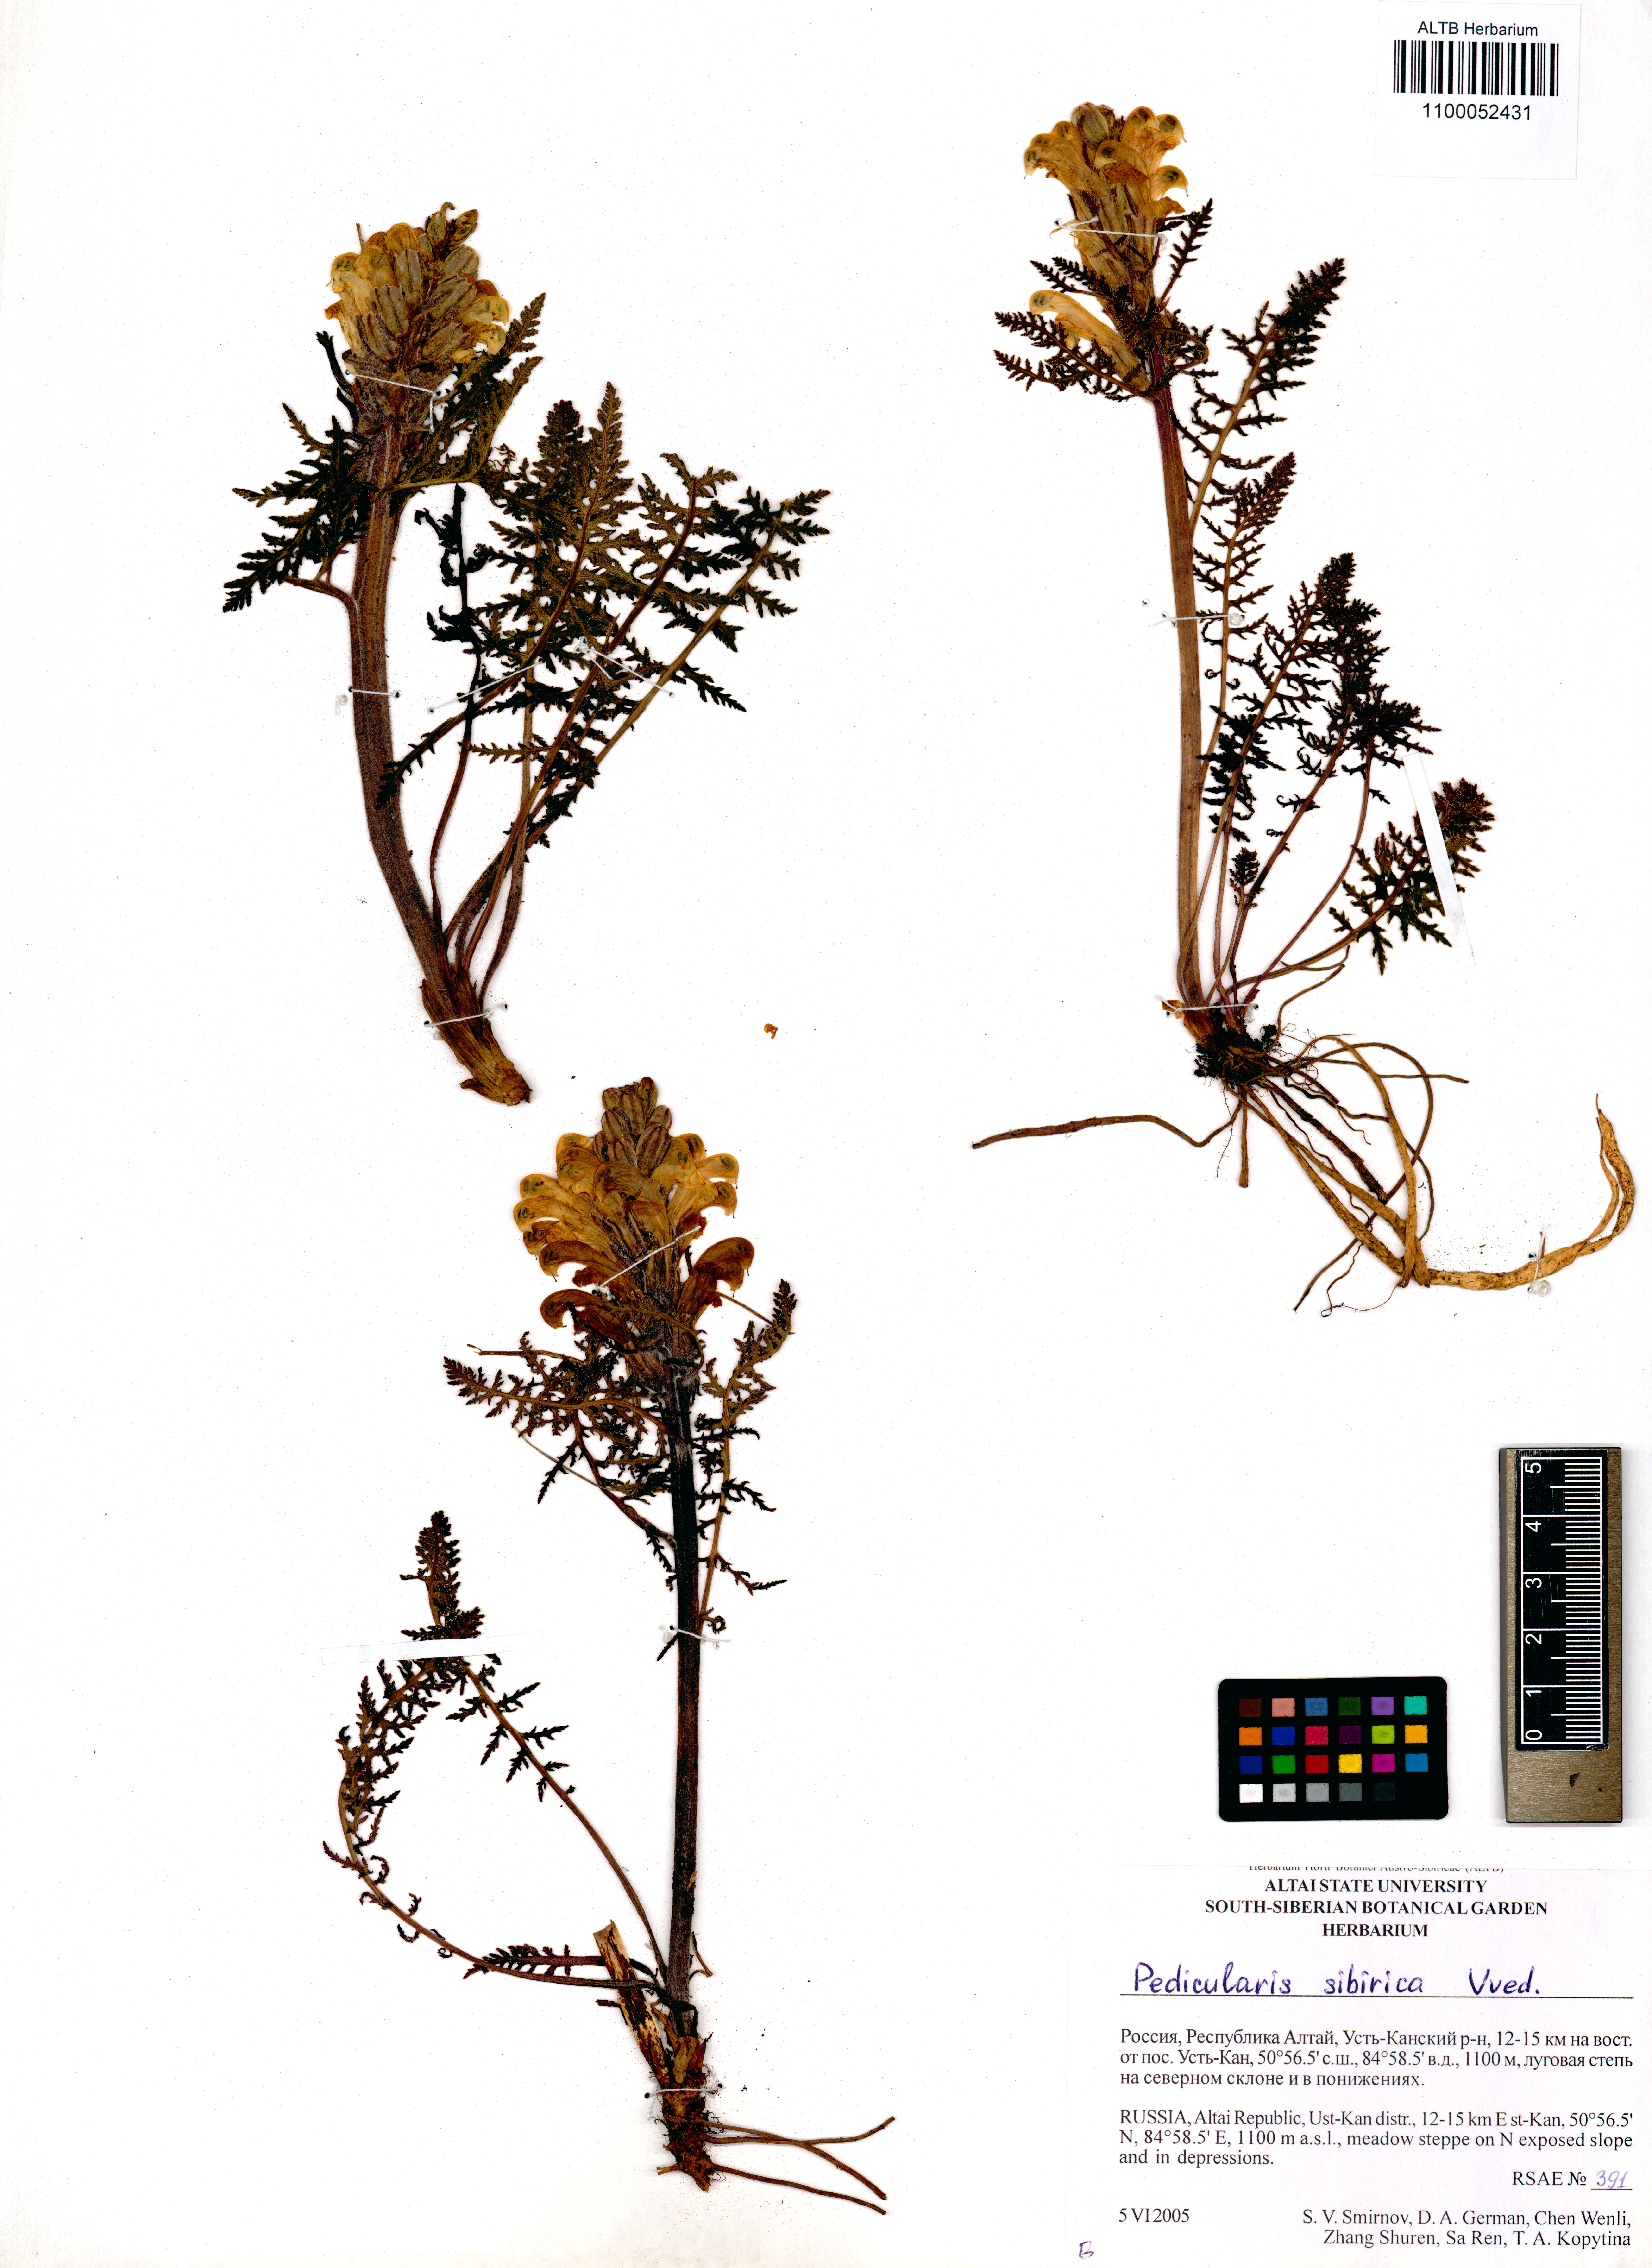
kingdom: Plantae
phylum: Tracheophyta
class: Magnoliopsida
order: Lamiales
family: Orobanchaceae
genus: Pedicularis
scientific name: Pedicularis sibirica
